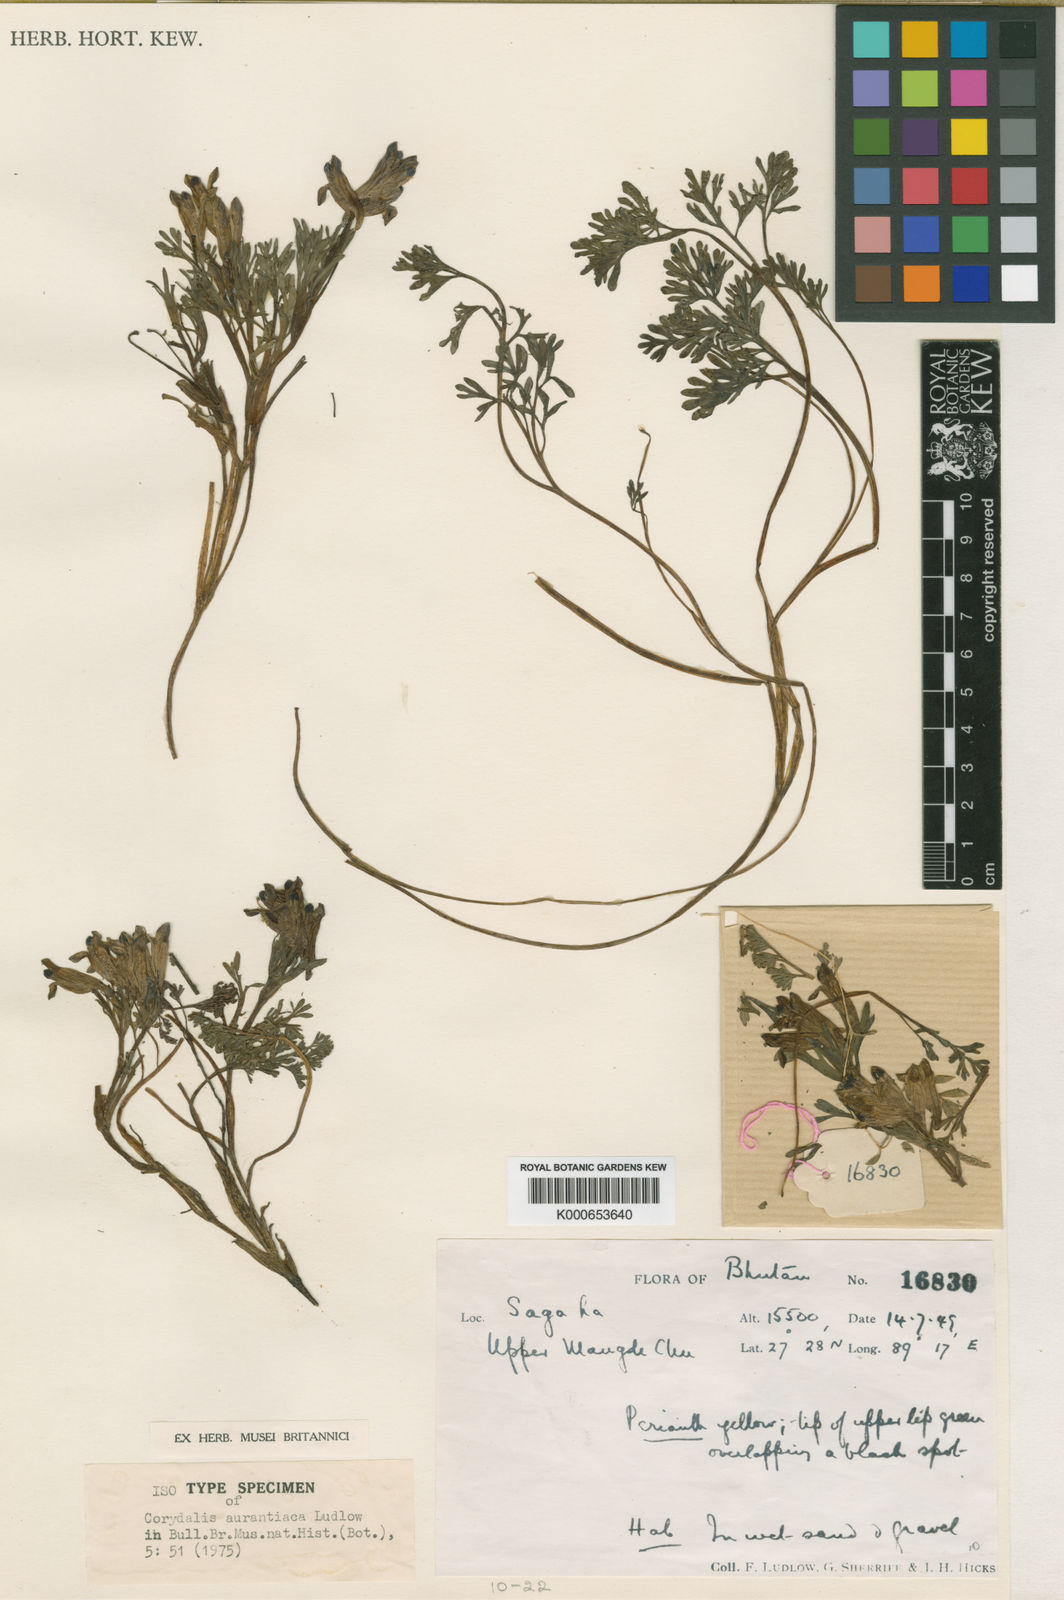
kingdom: Plantae
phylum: Tracheophyta
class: Magnoliopsida
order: Ranunculales
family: Papaveraceae
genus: Corydalis
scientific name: Corydalis aurantiaca
